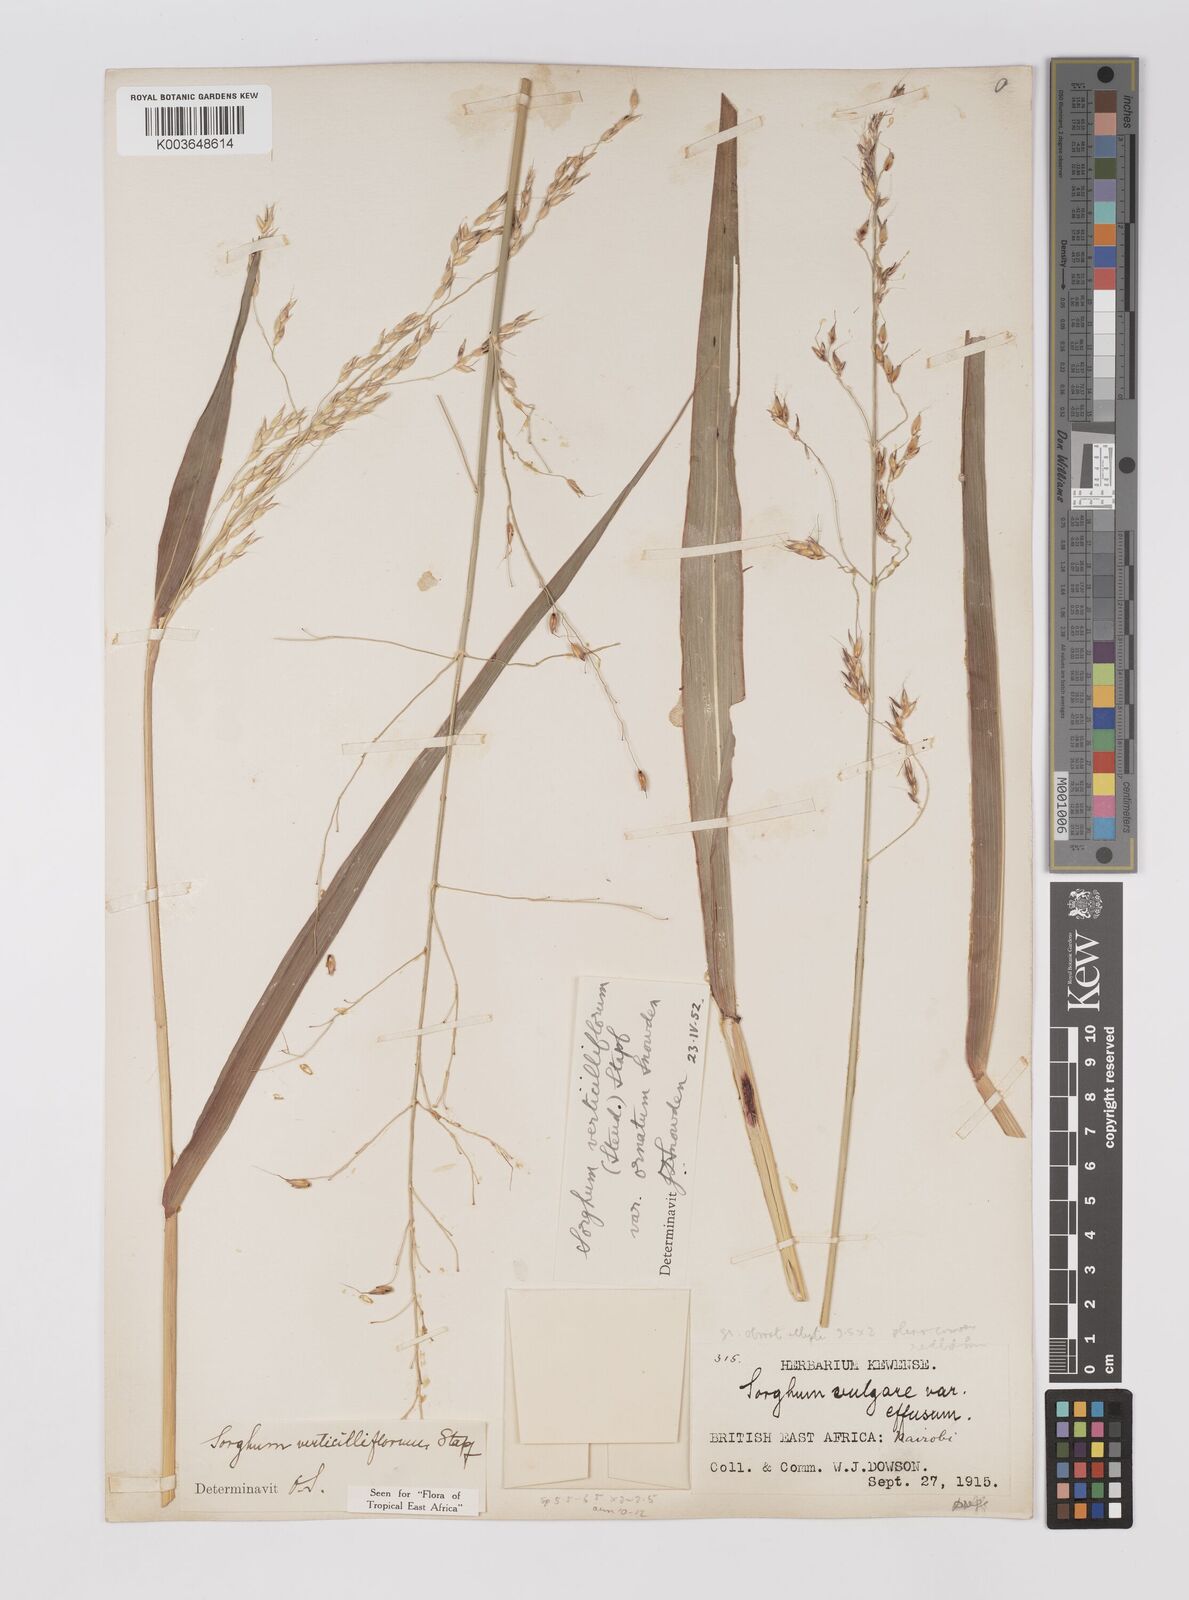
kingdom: Plantae
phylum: Tracheophyta
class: Liliopsida
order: Poales
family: Poaceae
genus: Sorghum
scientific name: Sorghum arundinaceum
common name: Sorghum
